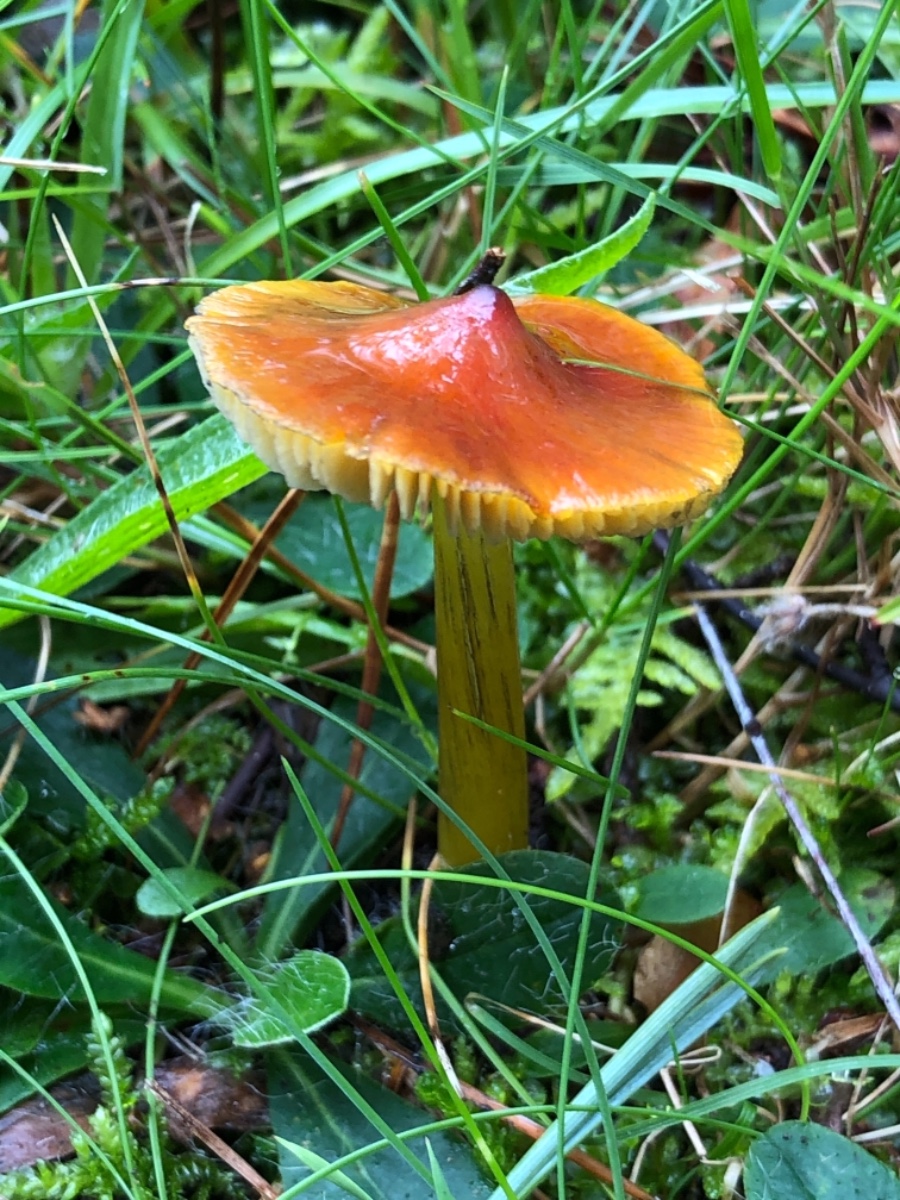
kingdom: Fungi
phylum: Basidiomycota
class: Agaricomycetes
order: Agaricales
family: Hygrophoraceae
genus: Hygrocybe
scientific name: Hygrocybe conica
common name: kegle-vokshat
